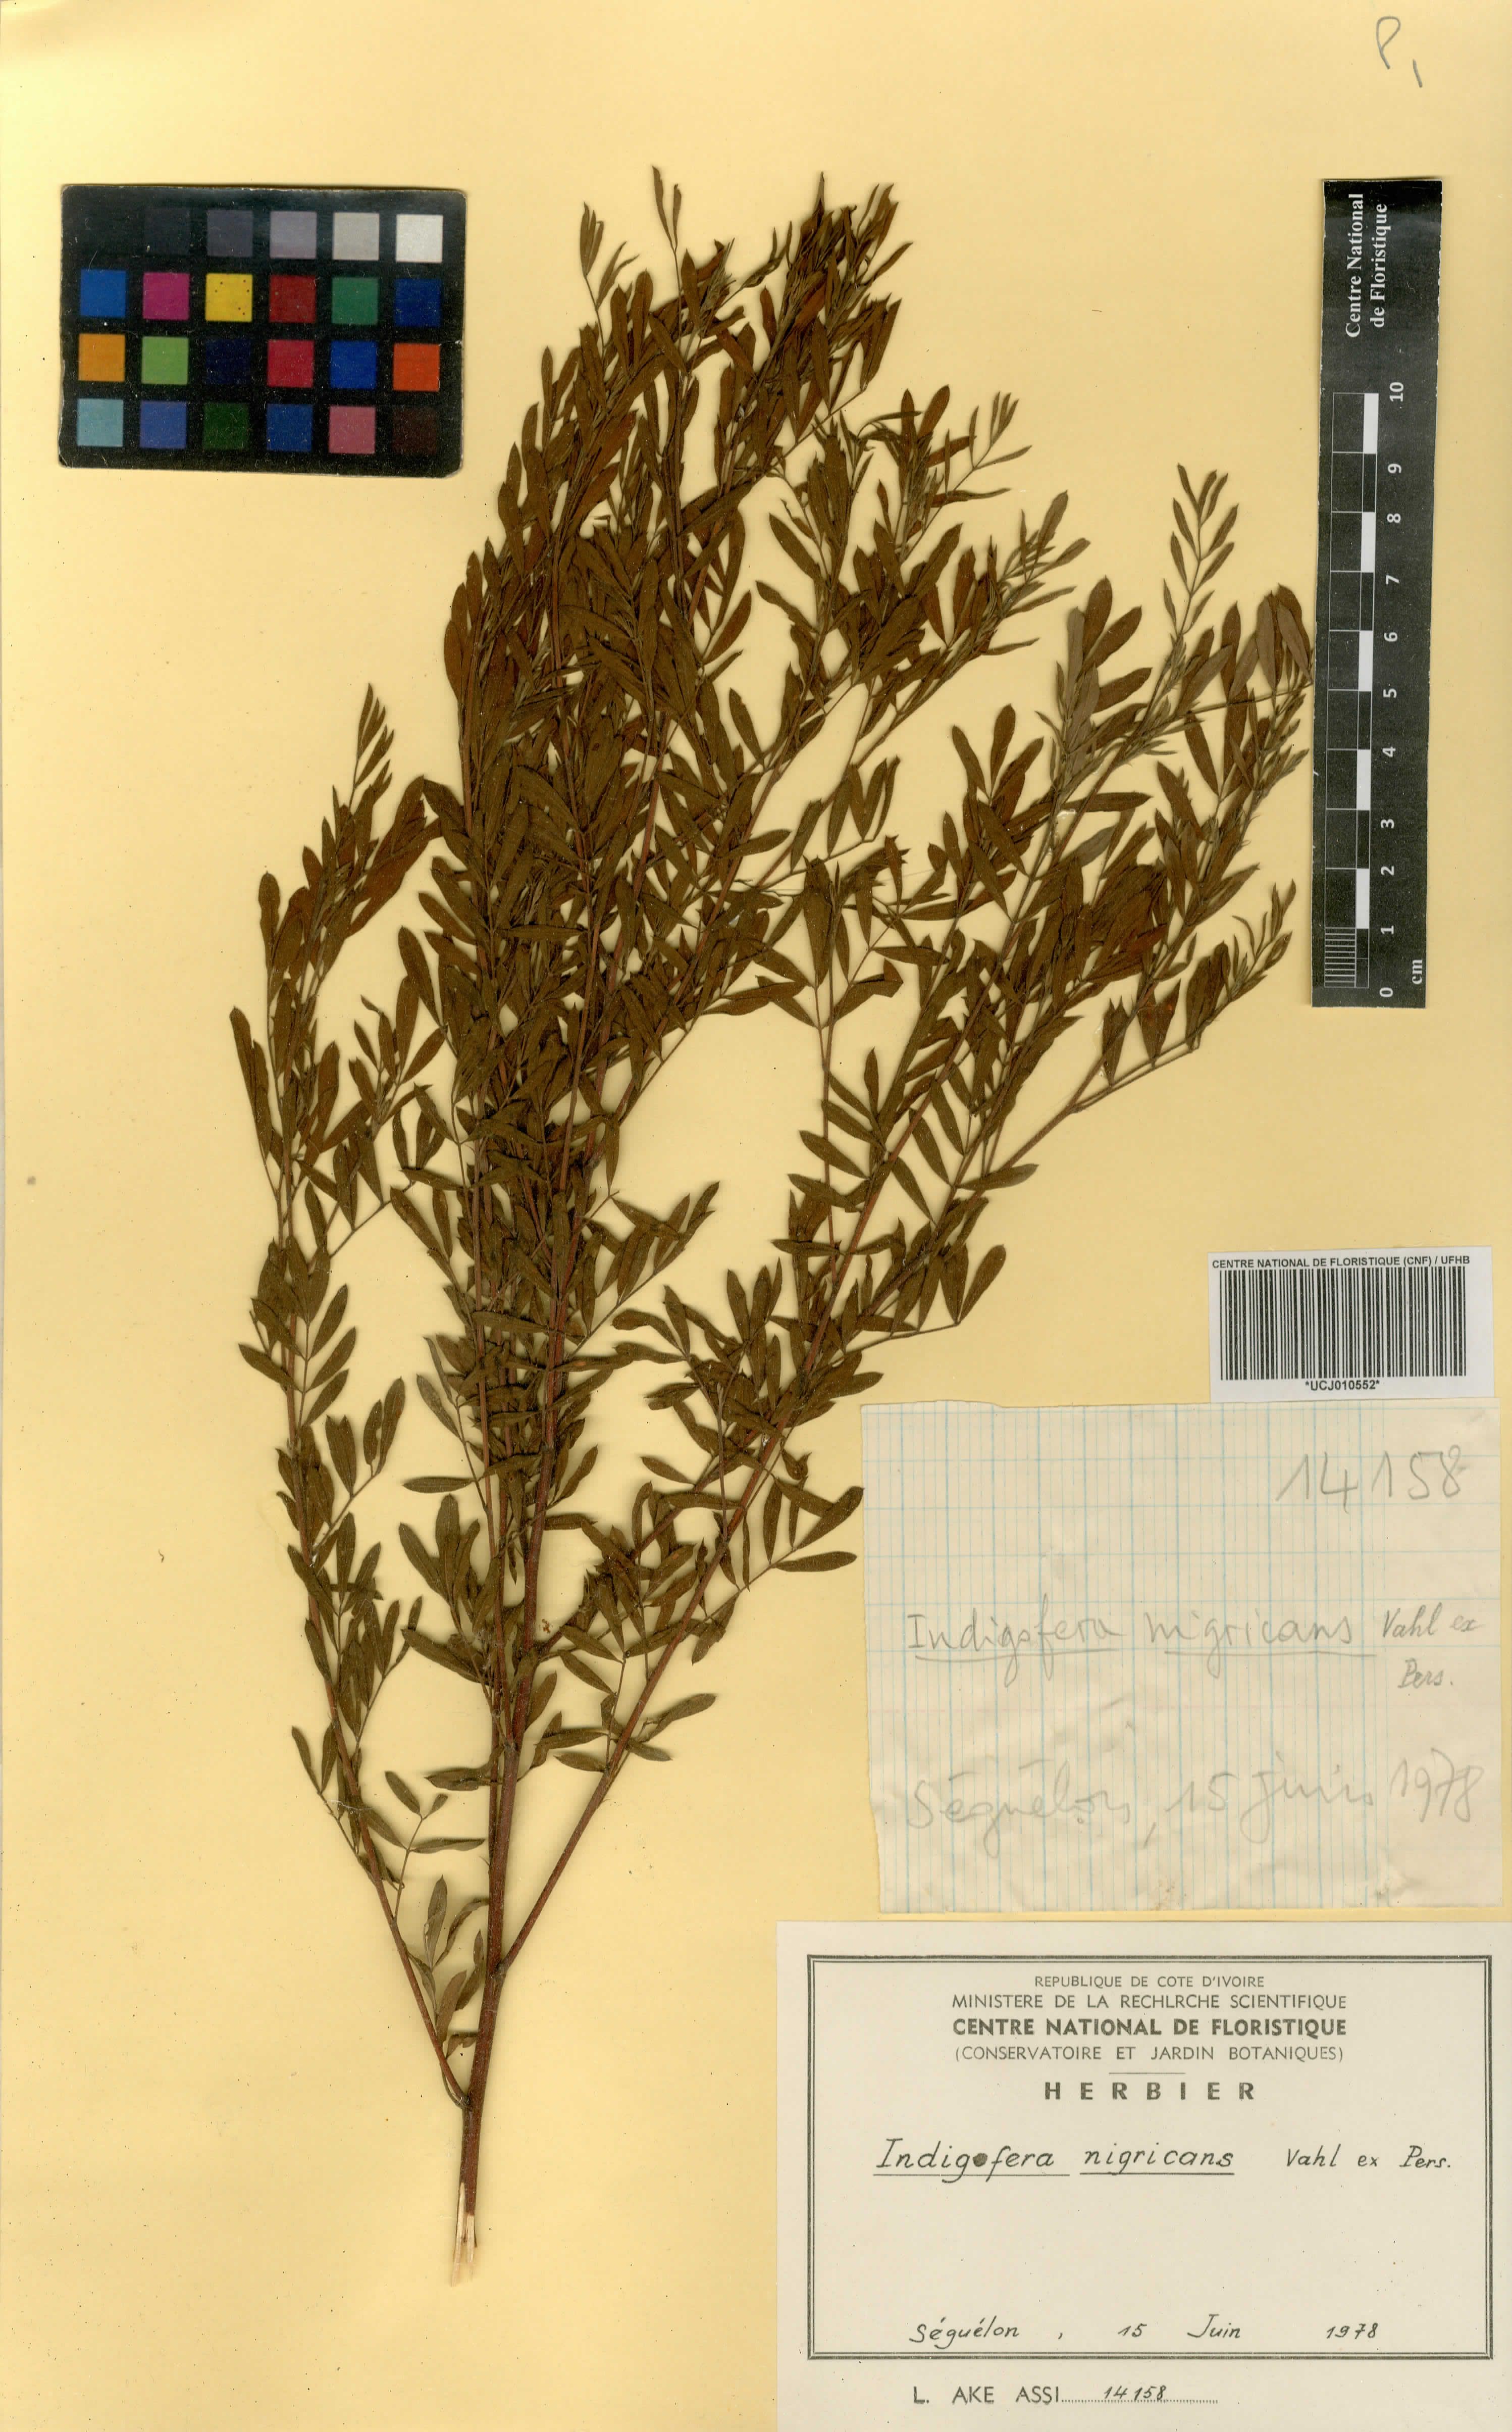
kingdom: Plantae
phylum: Tracheophyta
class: Magnoliopsida
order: Fabales
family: Fabaceae
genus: Indigofera
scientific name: Indigofera nigricans
